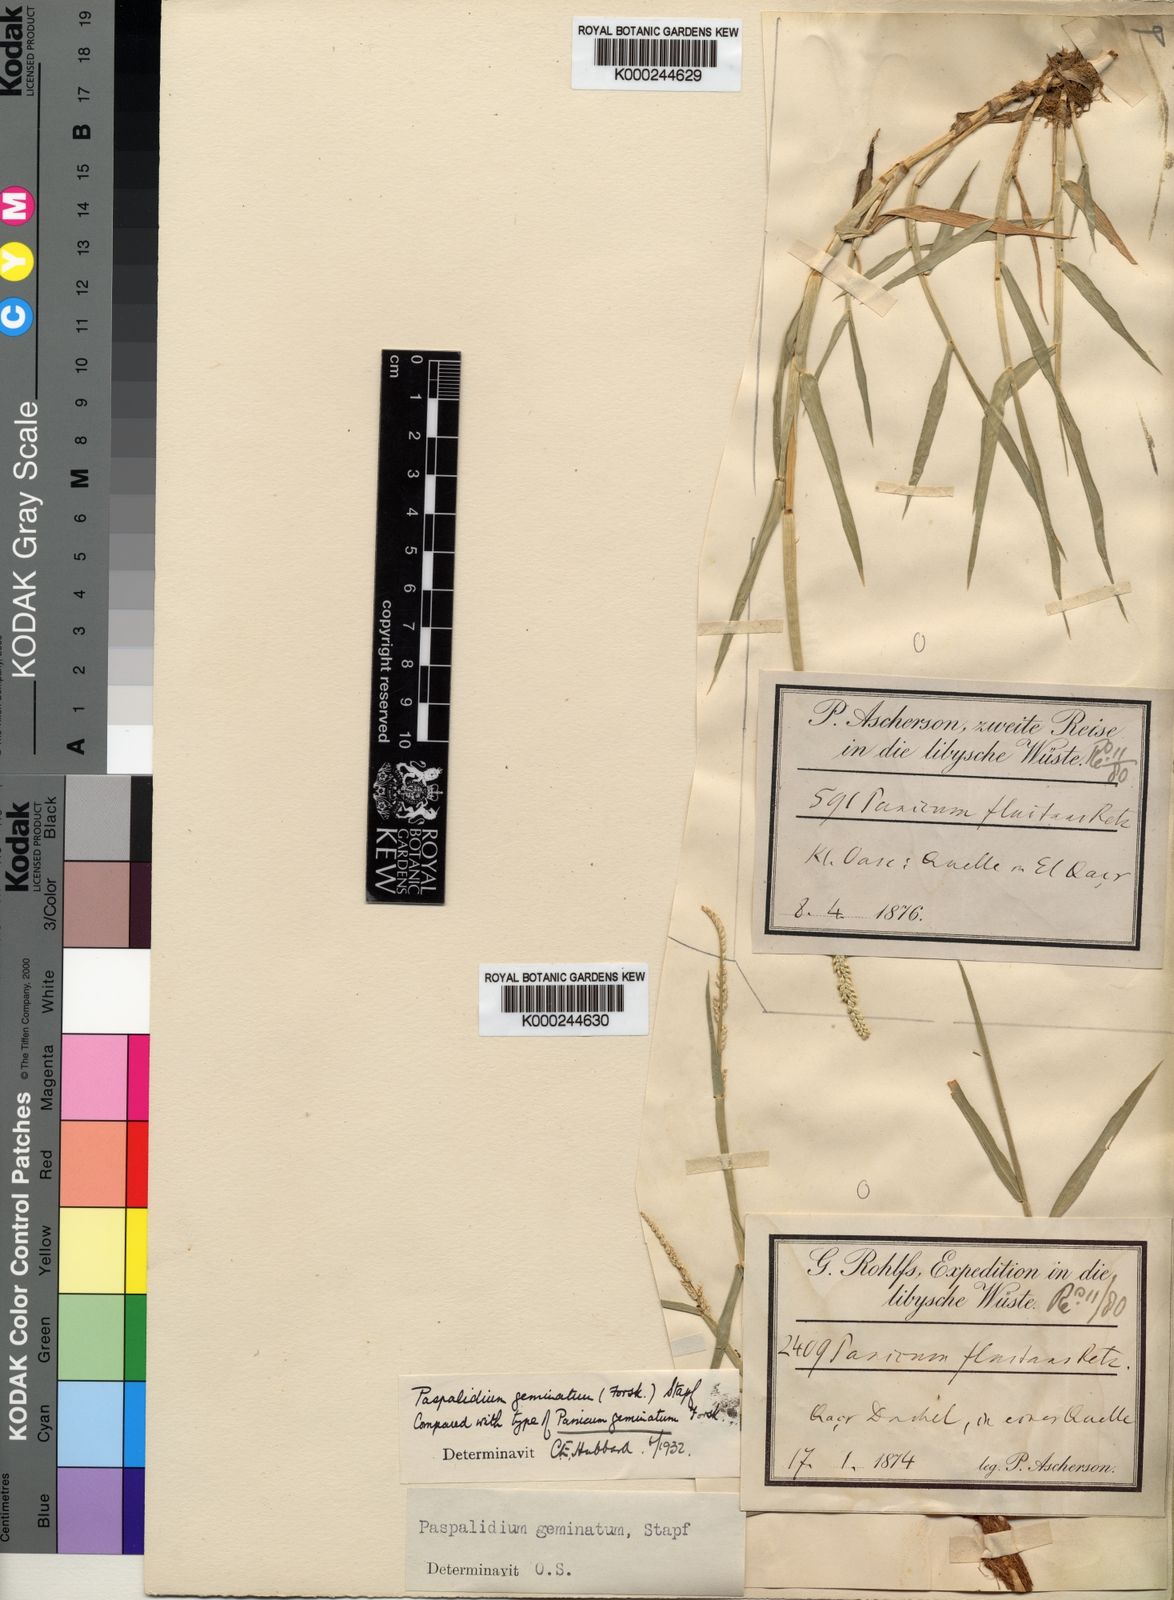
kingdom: Plantae
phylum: Tracheophyta
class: Liliopsida
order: Poales
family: Poaceae
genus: Setaria
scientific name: Setaria geminata
